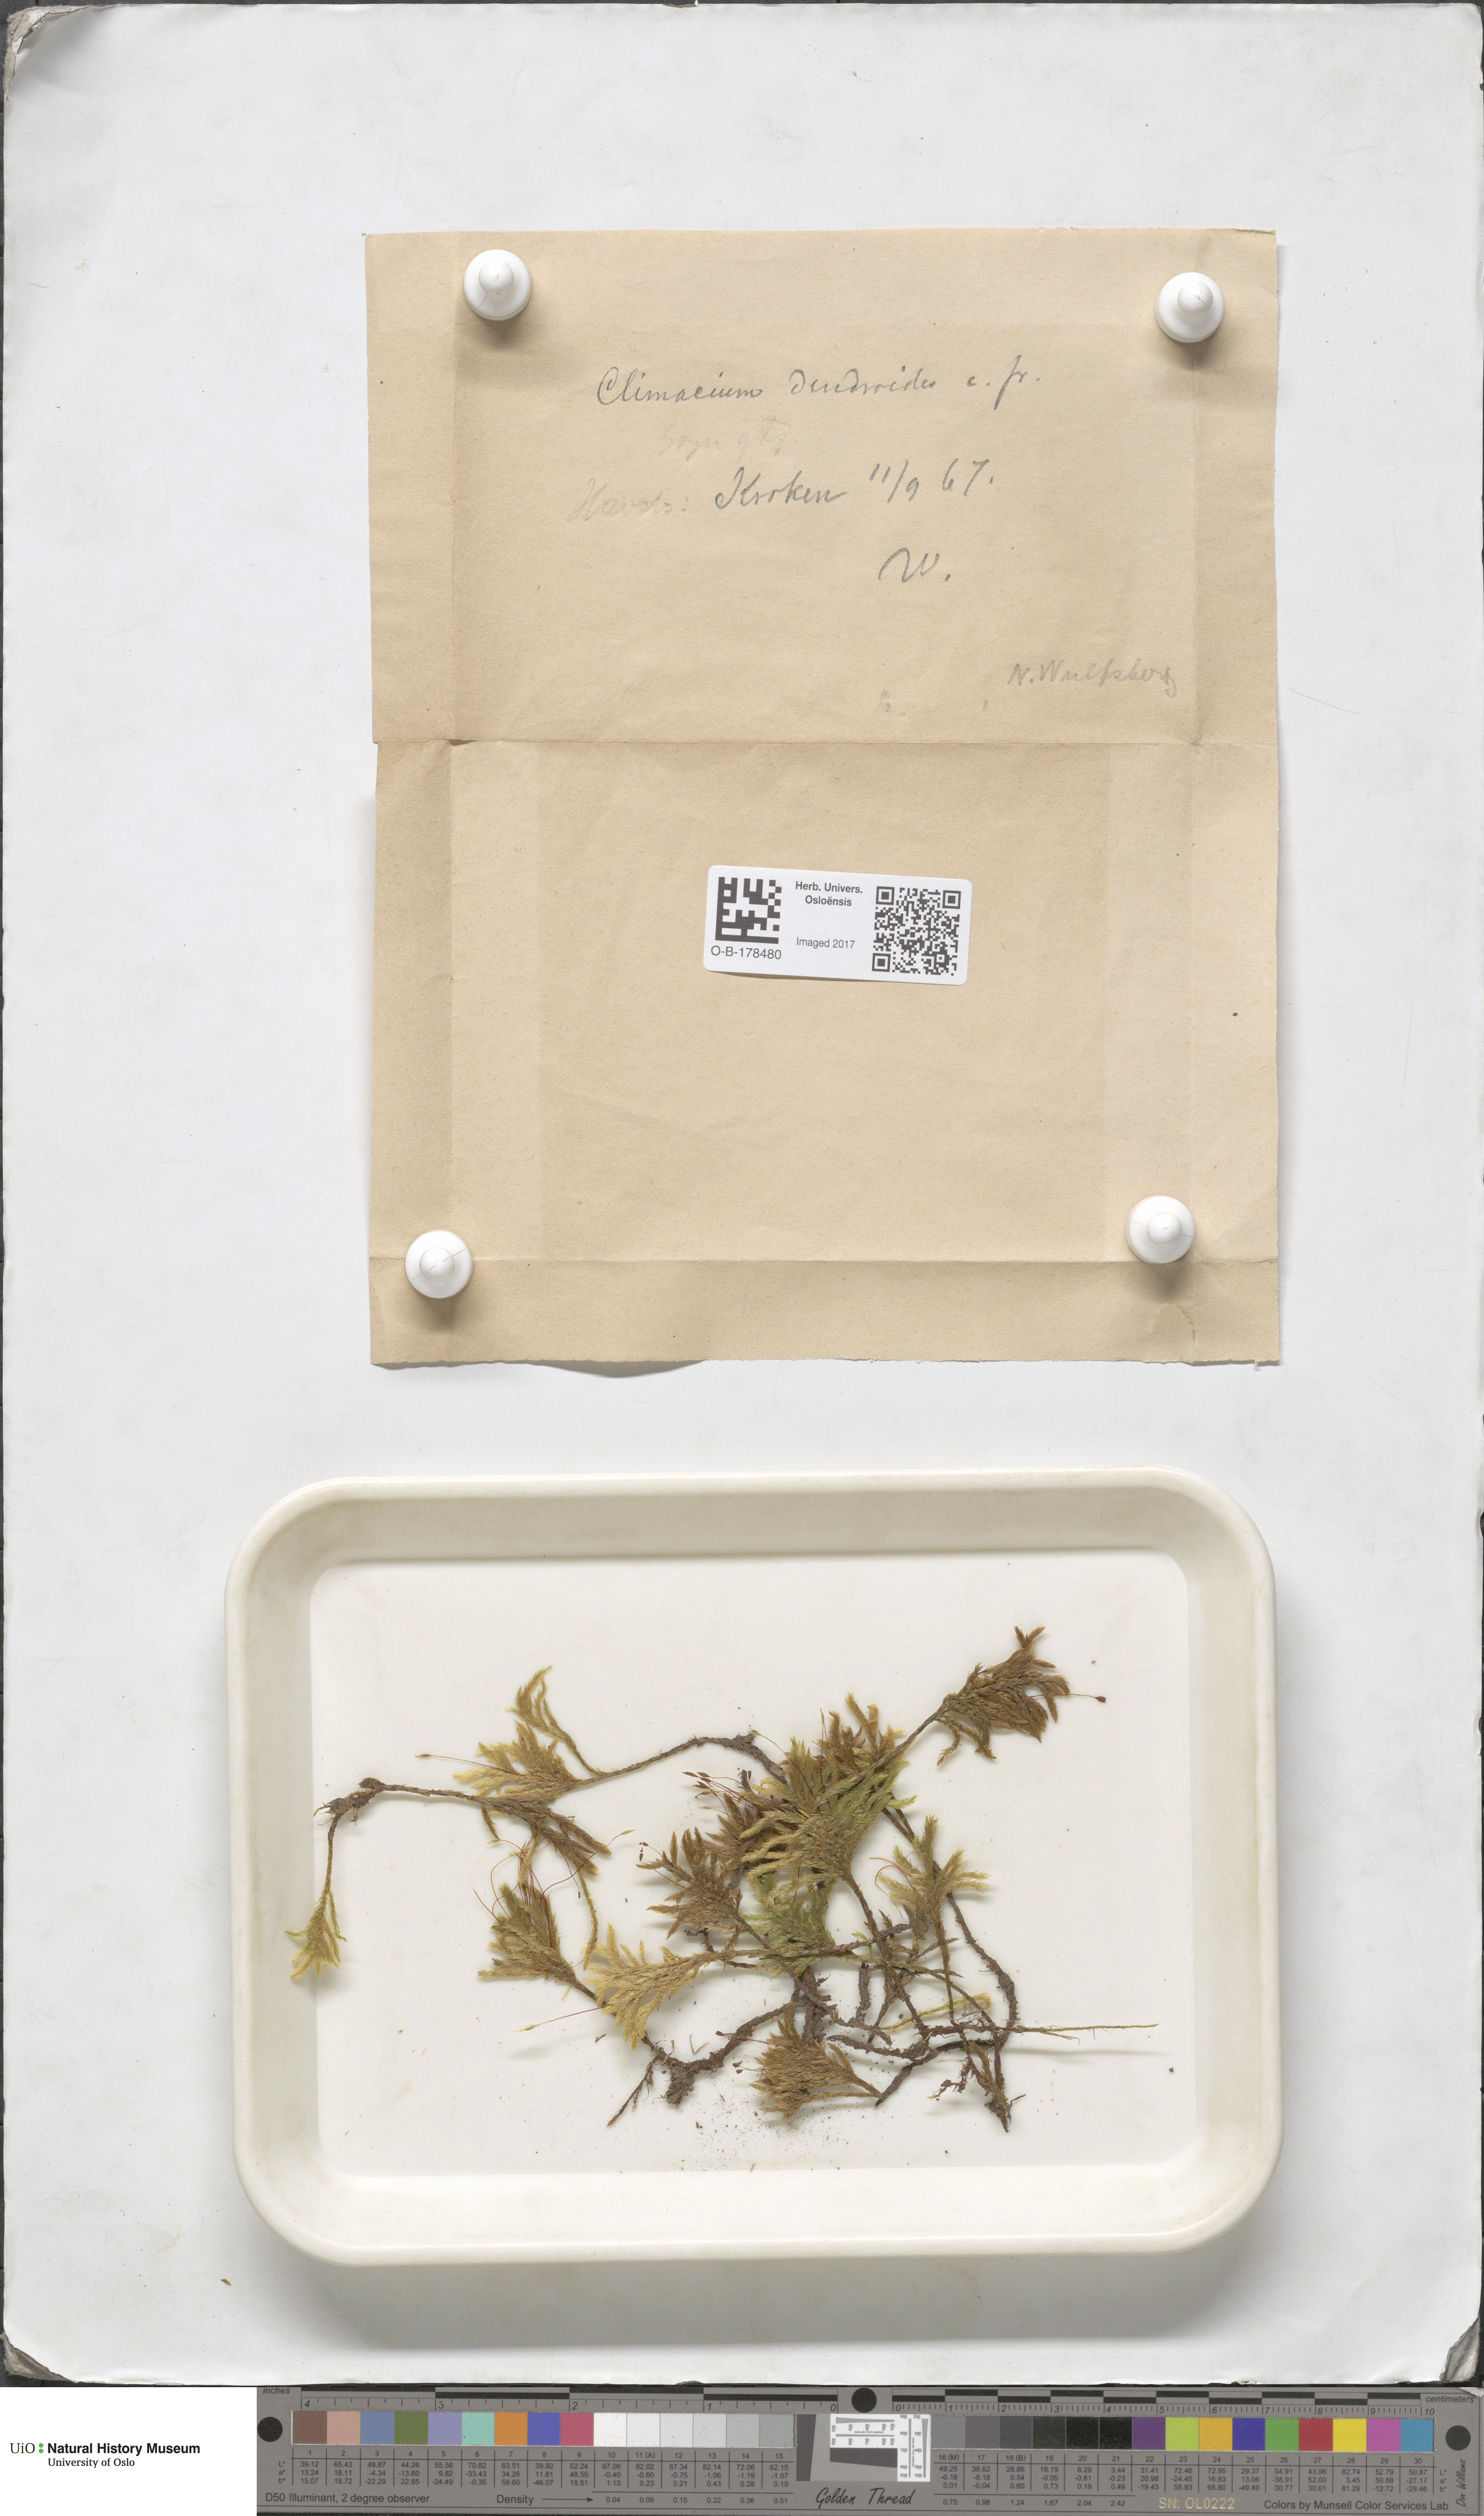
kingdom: Plantae
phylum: Bryophyta
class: Bryopsida
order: Hypnales
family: Climaciaceae
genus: Climacium
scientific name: Climacium dendroides
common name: Northern tree moss
